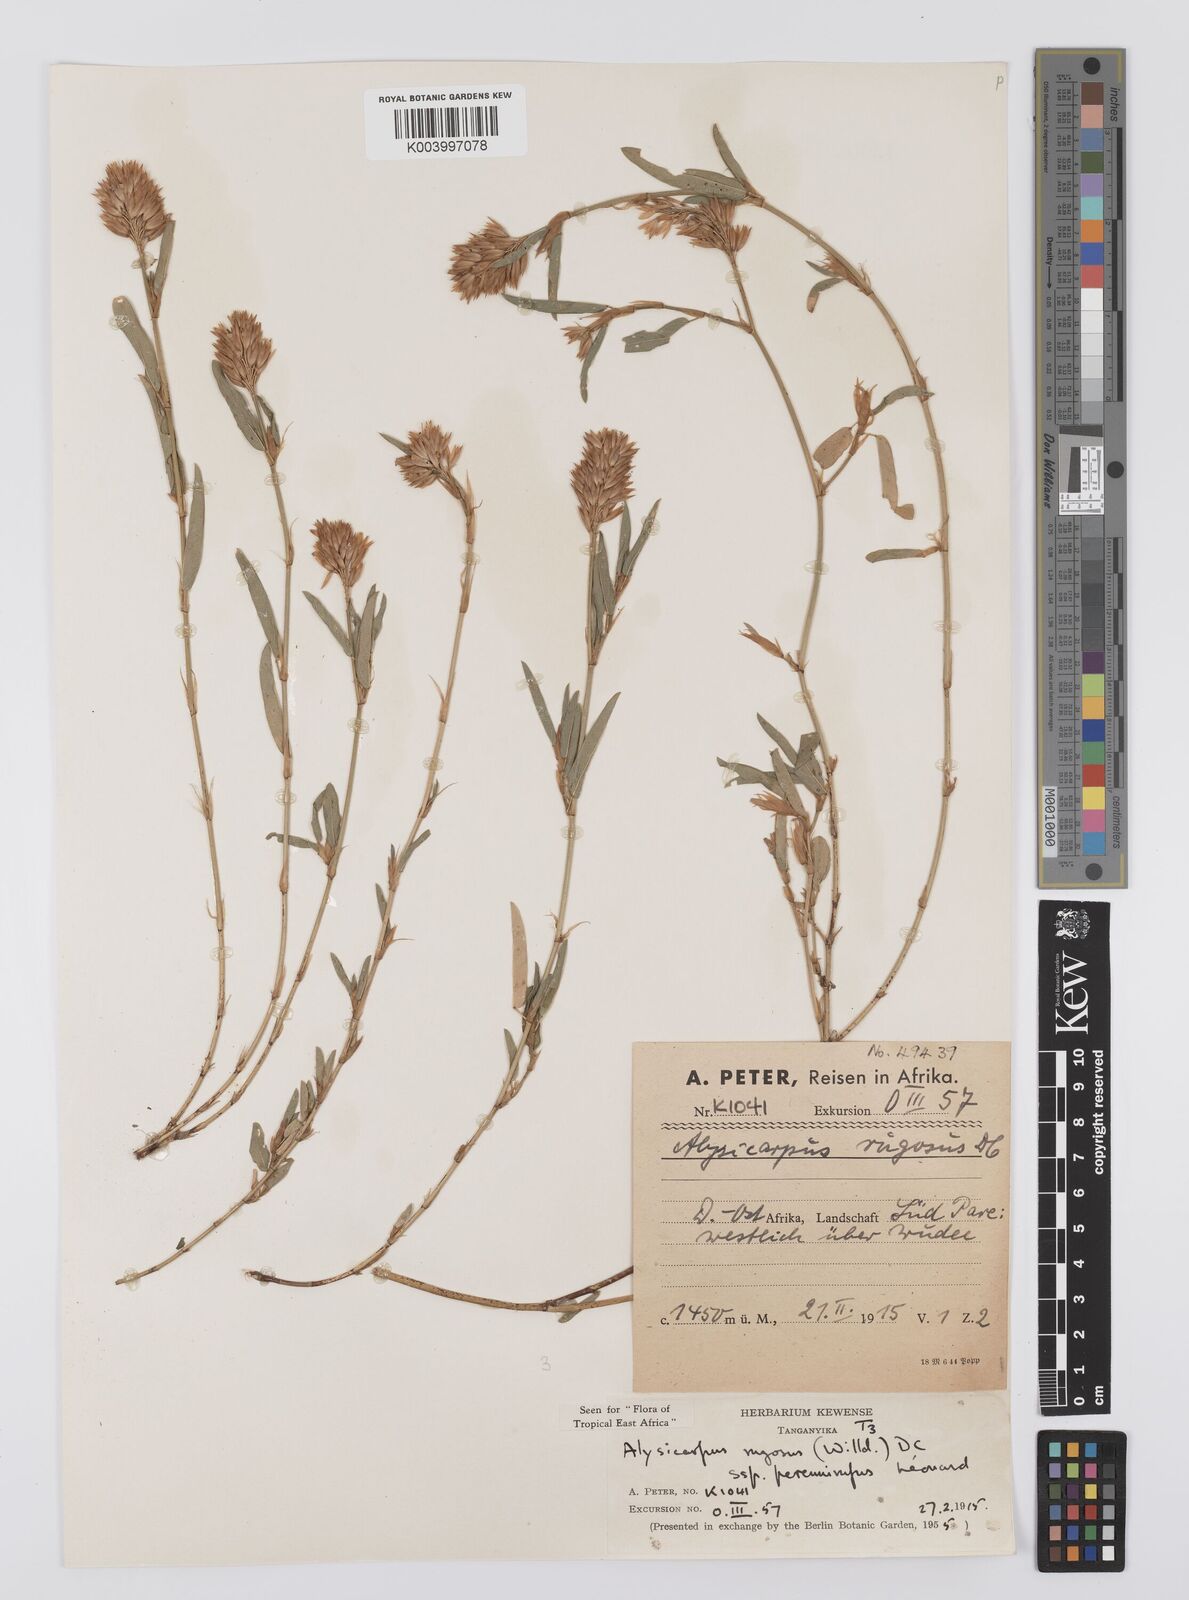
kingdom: Plantae
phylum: Tracheophyta
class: Magnoliopsida
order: Fabales
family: Fabaceae
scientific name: Fabaceae
